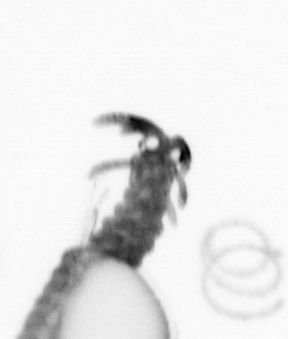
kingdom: Animalia
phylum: Annelida
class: Polychaeta
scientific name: Polychaeta
